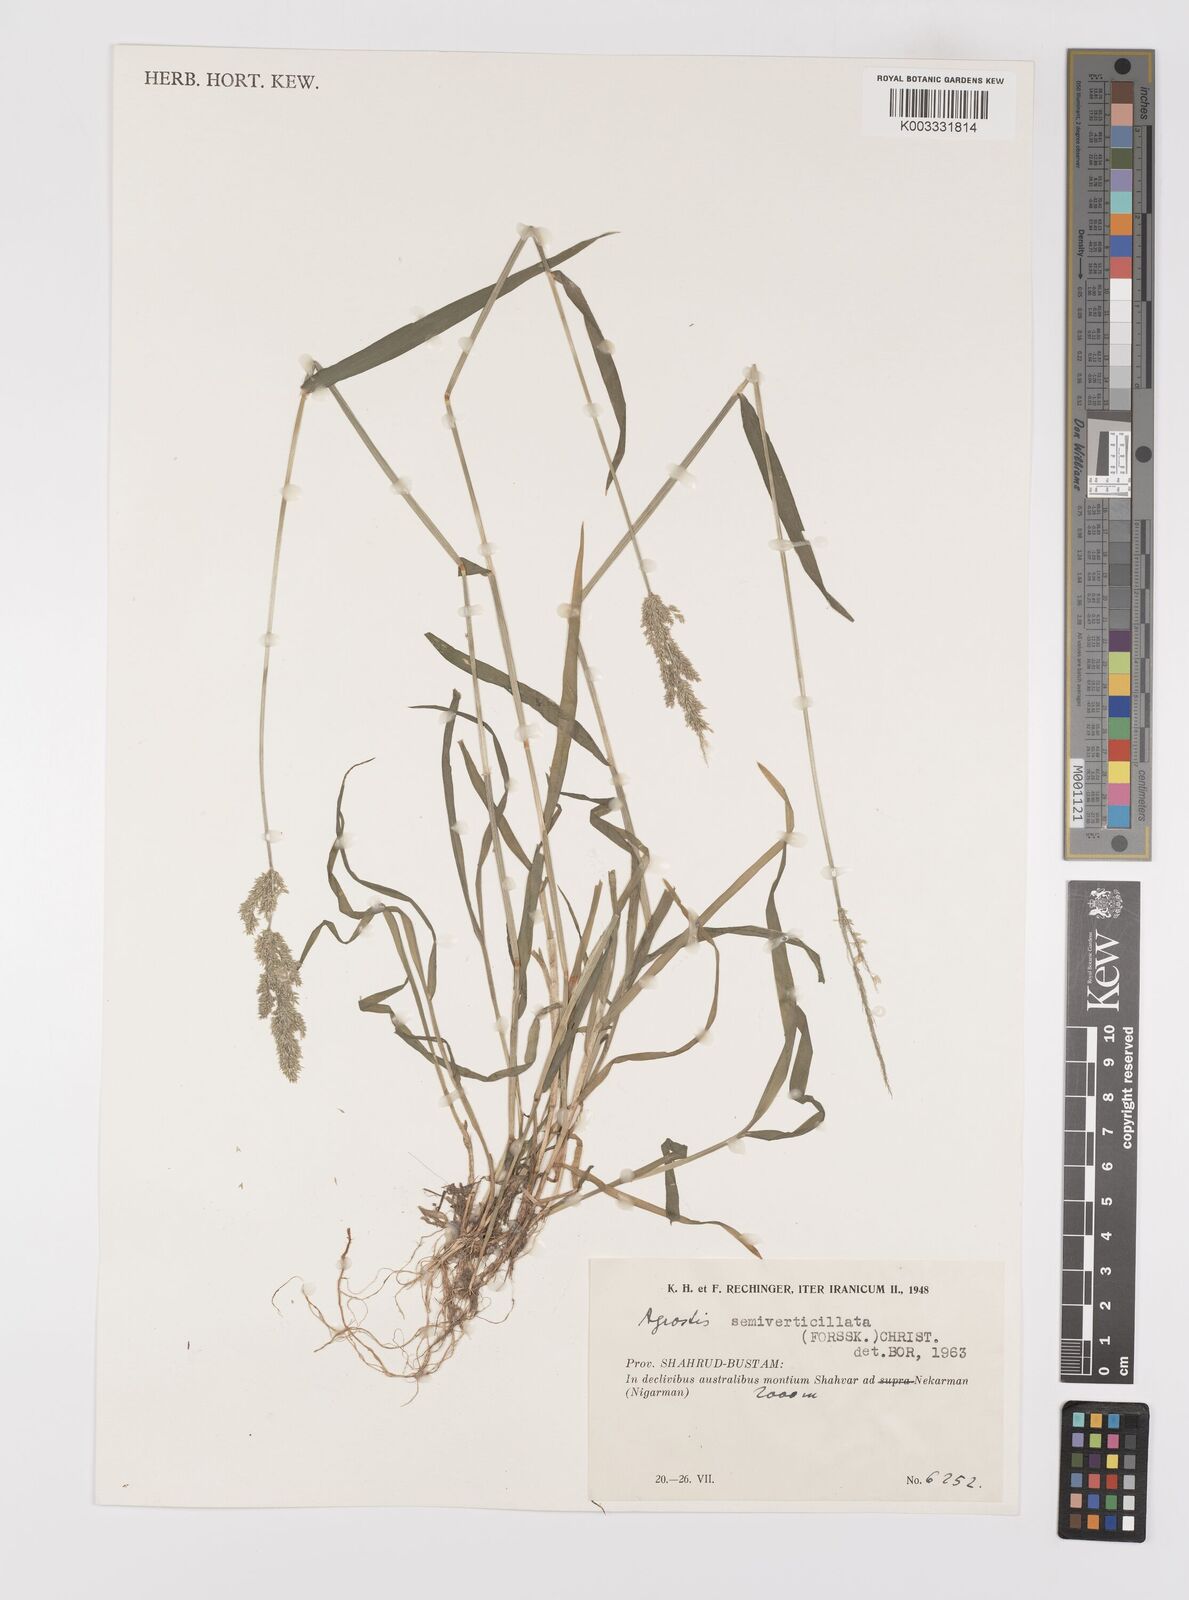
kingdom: Plantae
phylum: Tracheophyta
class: Liliopsida
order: Poales
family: Poaceae
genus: Polypogon
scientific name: Polypogon viridis
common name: Water bent
